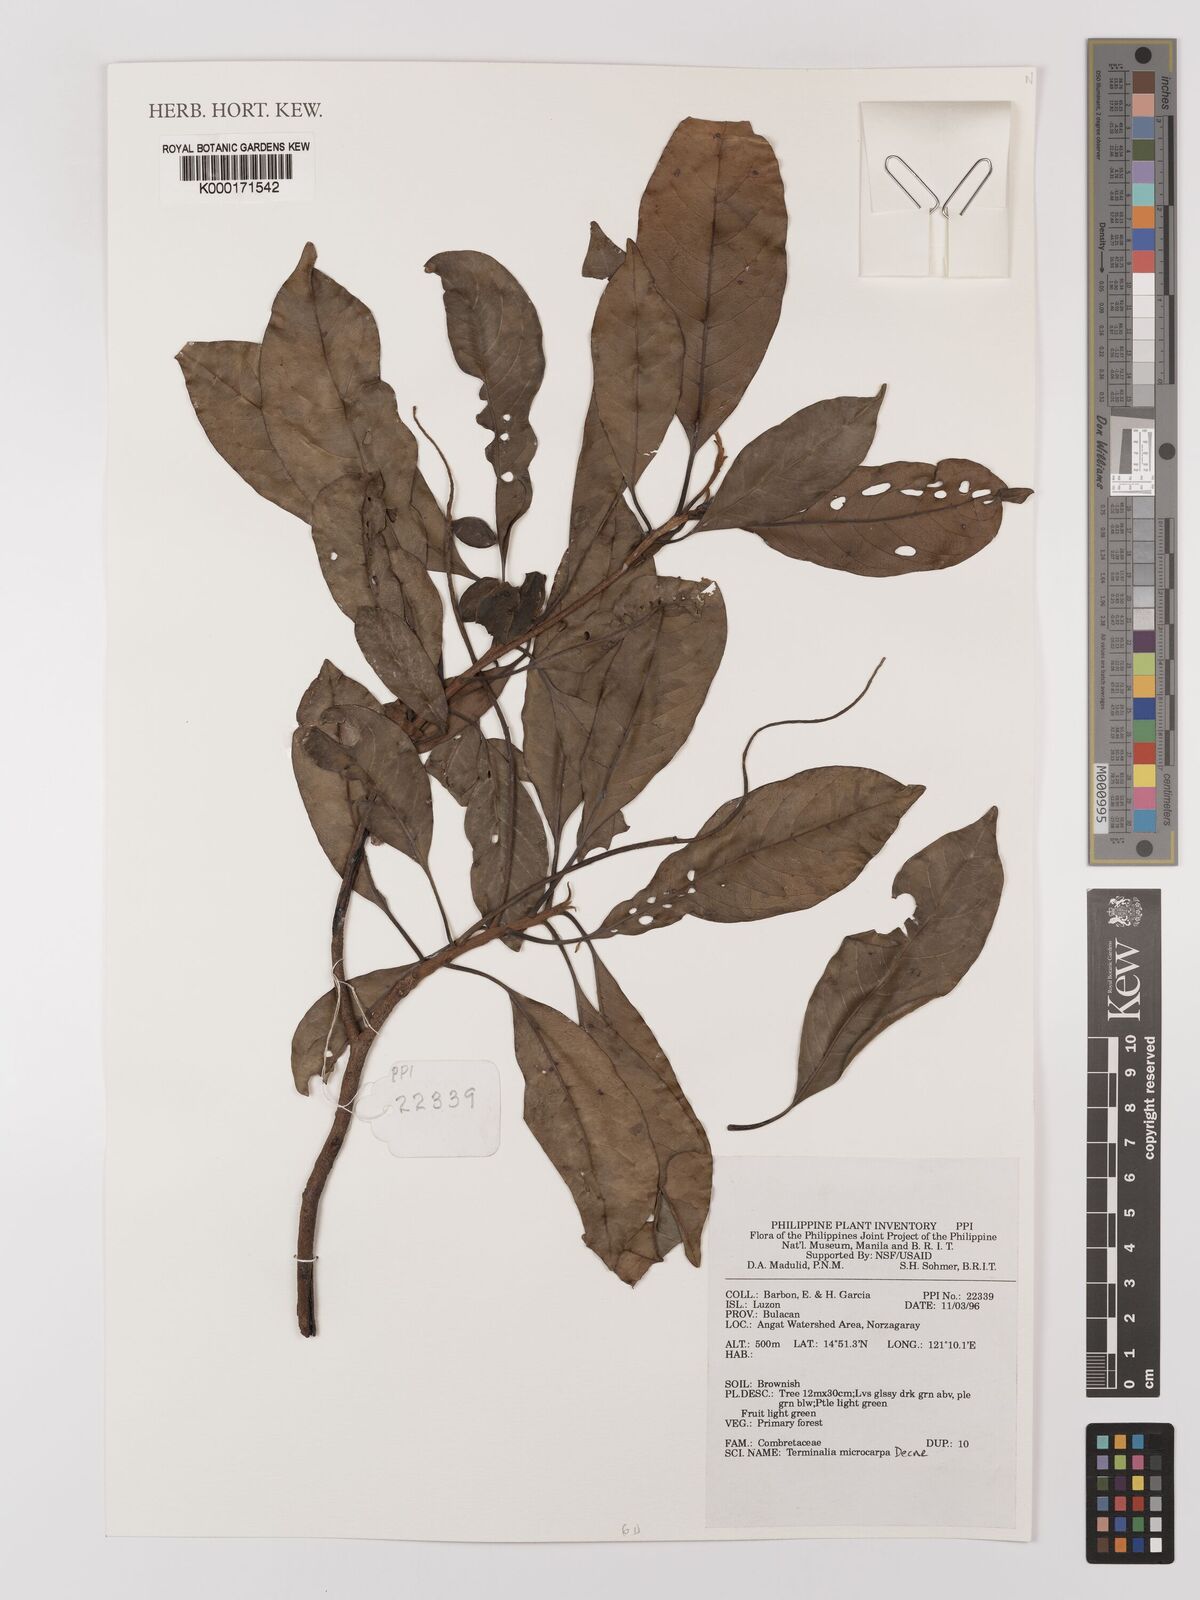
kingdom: Plantae
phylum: Tracheophyta
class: Magnoliopsida
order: Myrtales
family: Combretaceae
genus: Terminalia
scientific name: Terminalia microcarpa
